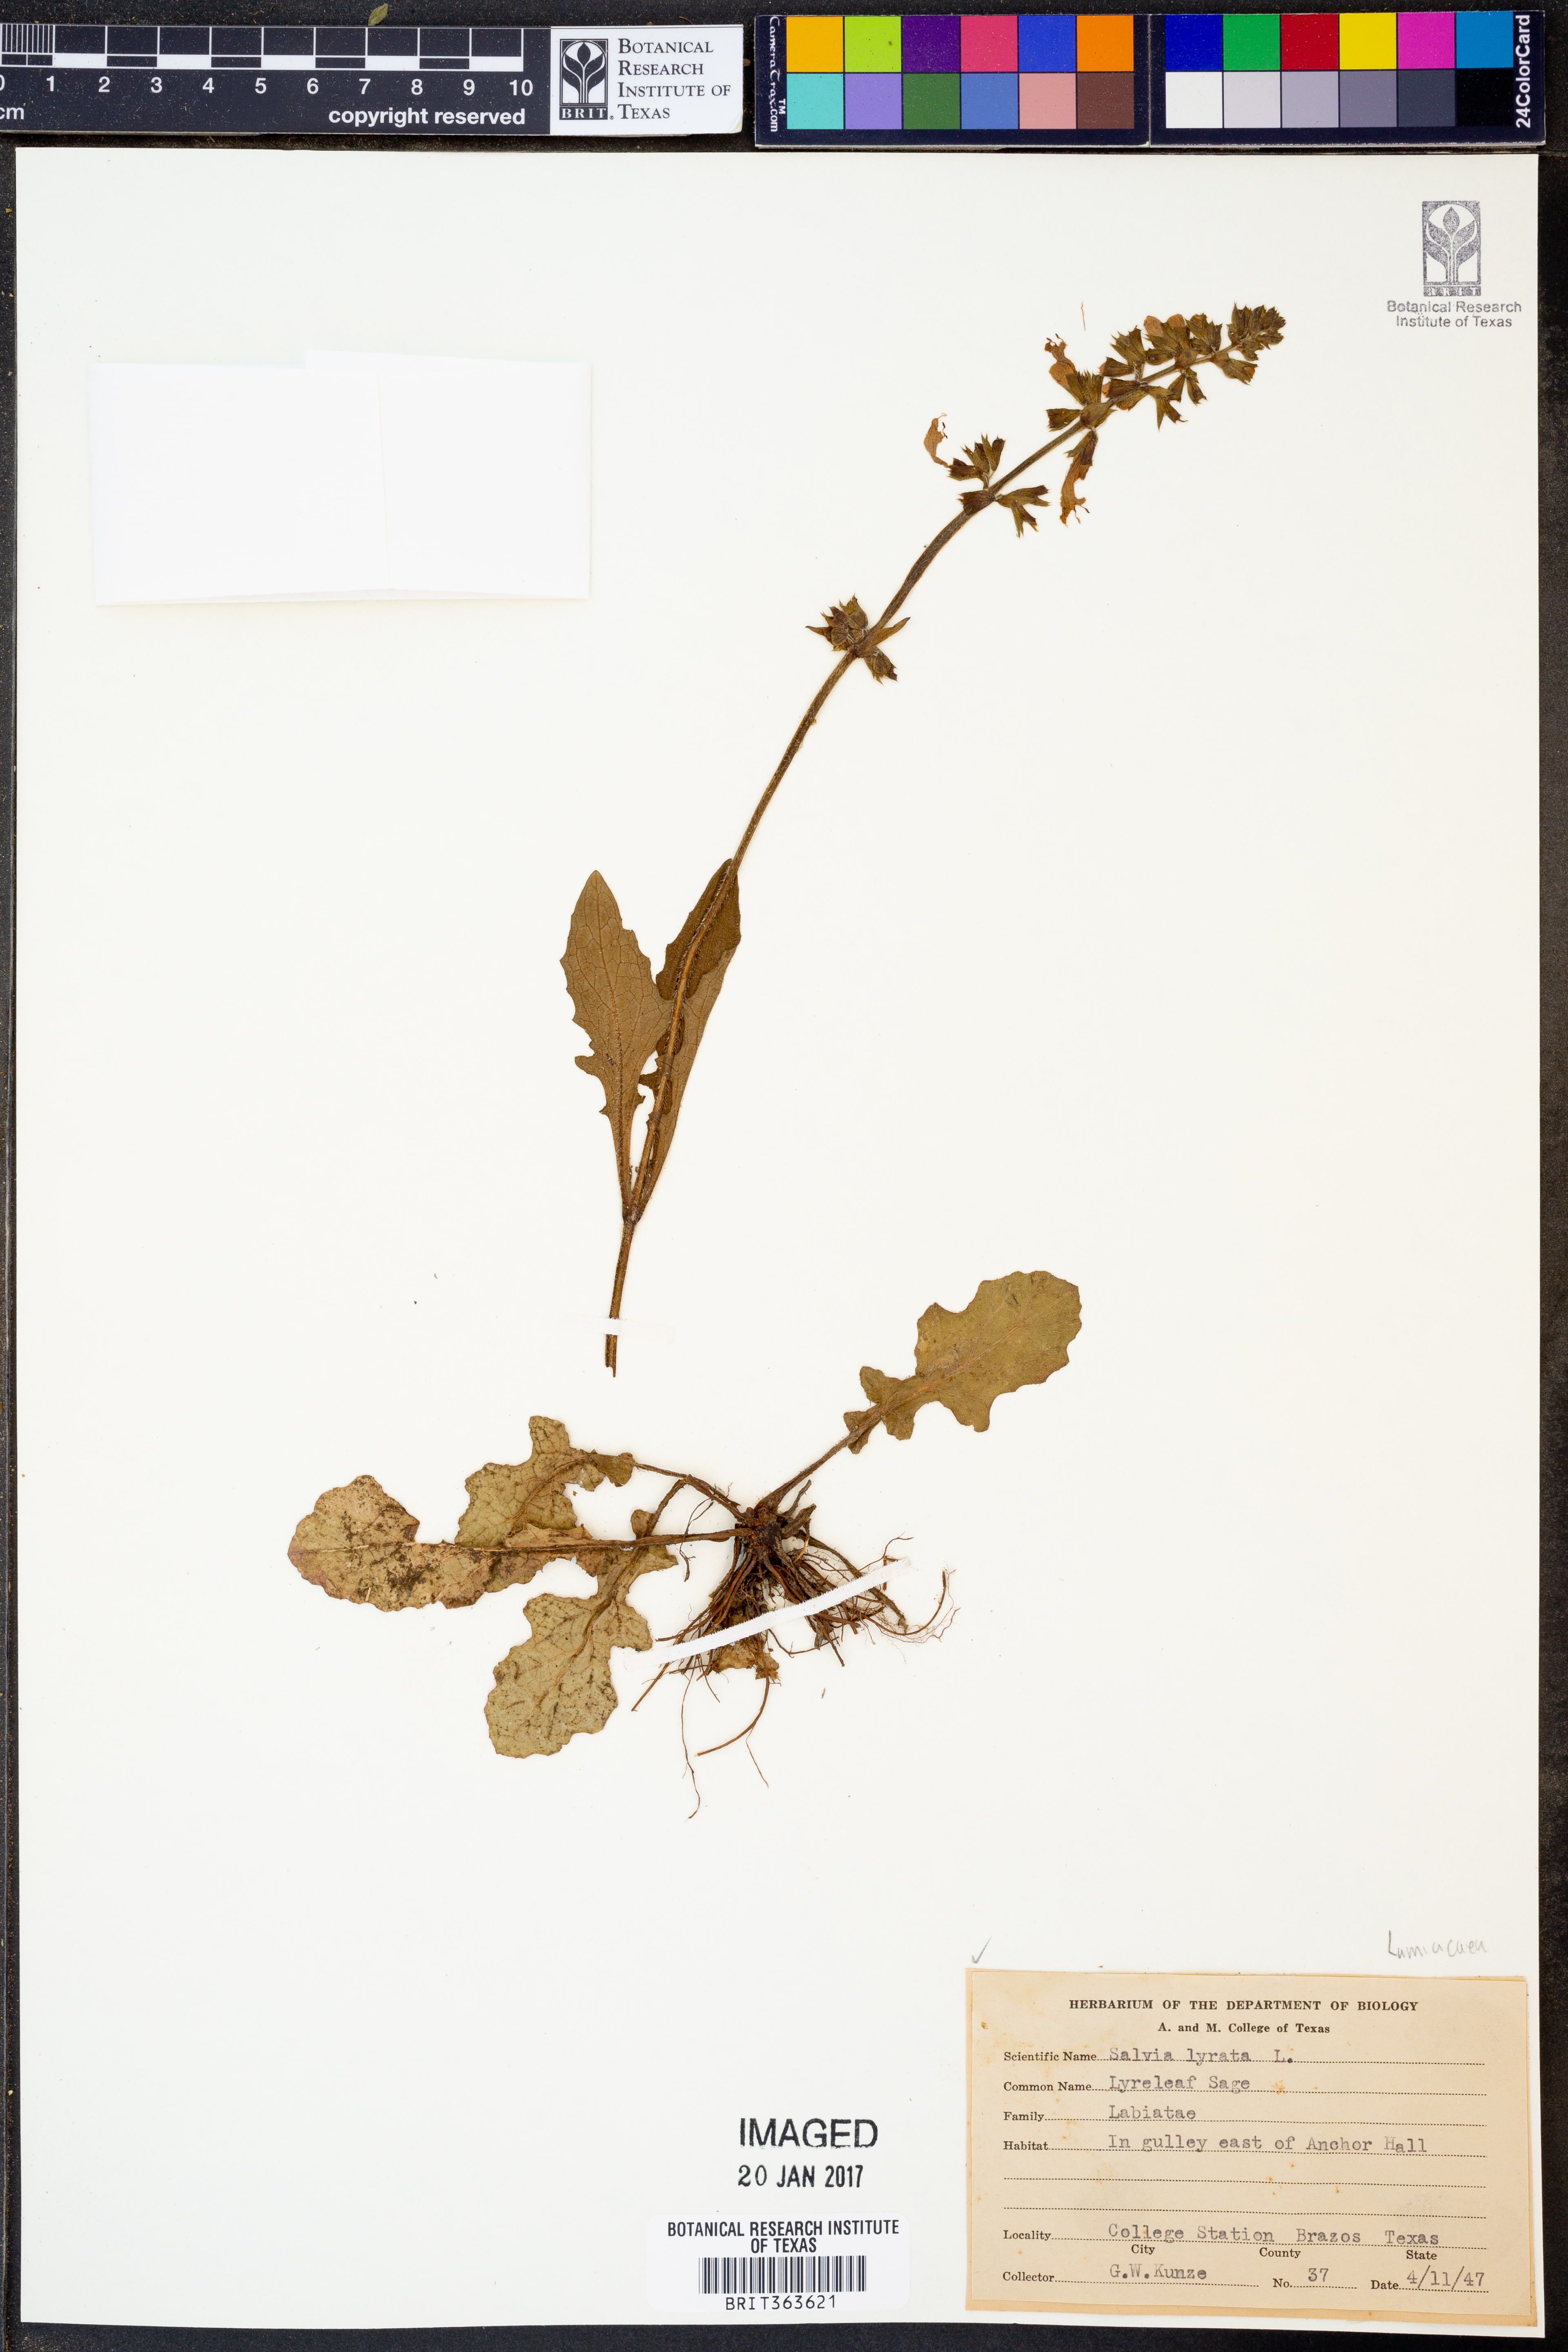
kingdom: Plantae
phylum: Tracheophyta
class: Magnoliopsida
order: Lamiales
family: Lamiaceae
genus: Salvia
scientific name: Salvia lyrata
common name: Cancerweed
